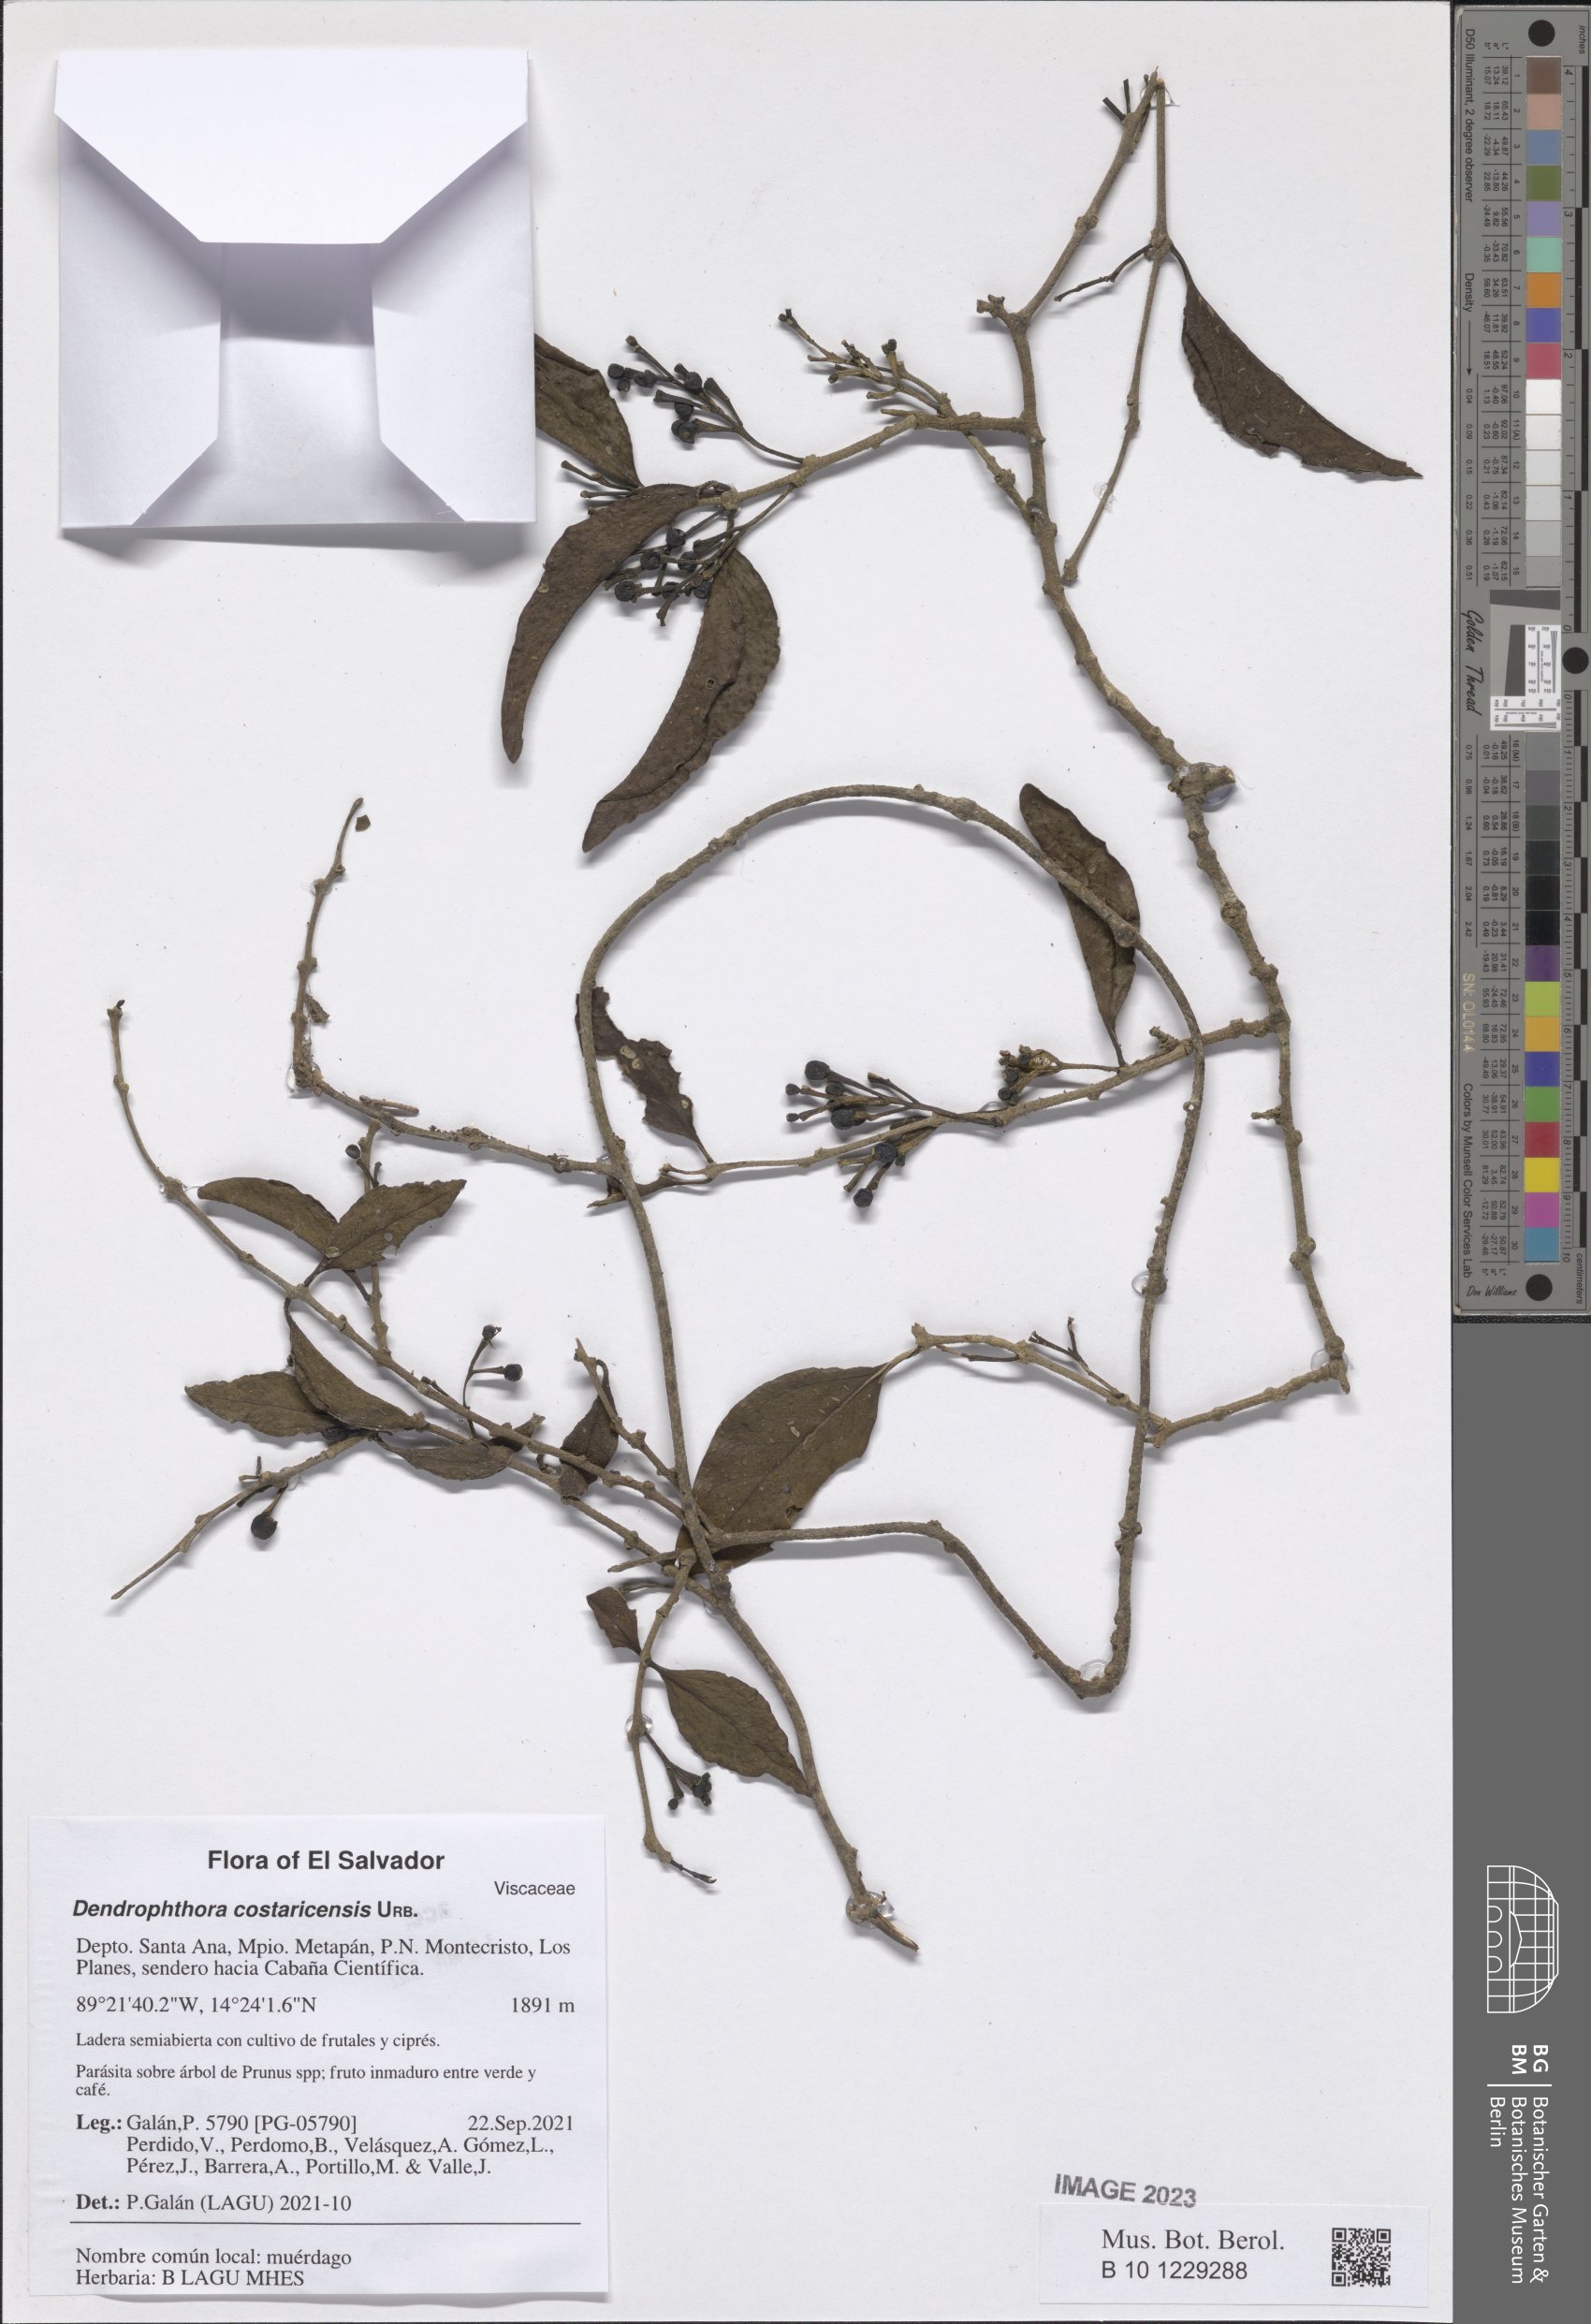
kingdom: Plantae
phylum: Tracheophyta
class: Magnoliopsida
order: Santalales
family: Viscaceae
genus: Phoradendron
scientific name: Phoradendron costaricense
